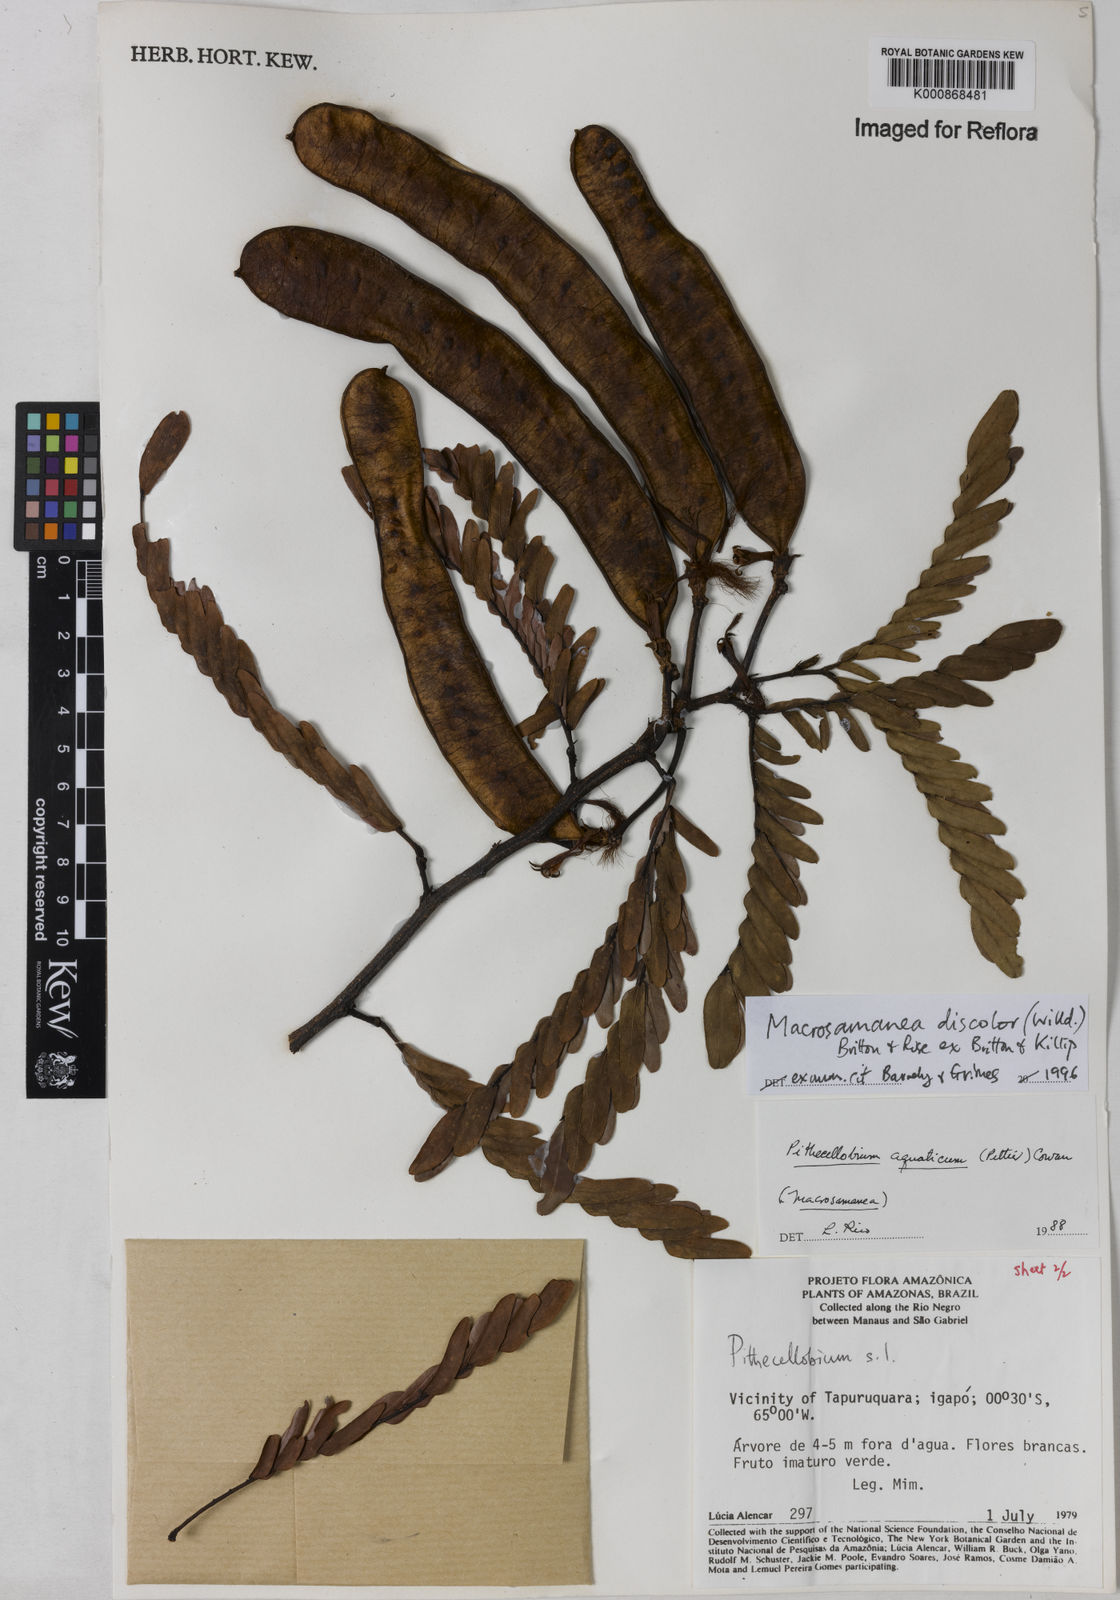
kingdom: Plantae
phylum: Tracheophyta
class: Magnoliopsida
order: Fabales
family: Fabaceae
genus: Macrosamanea
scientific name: Macrosamanea
